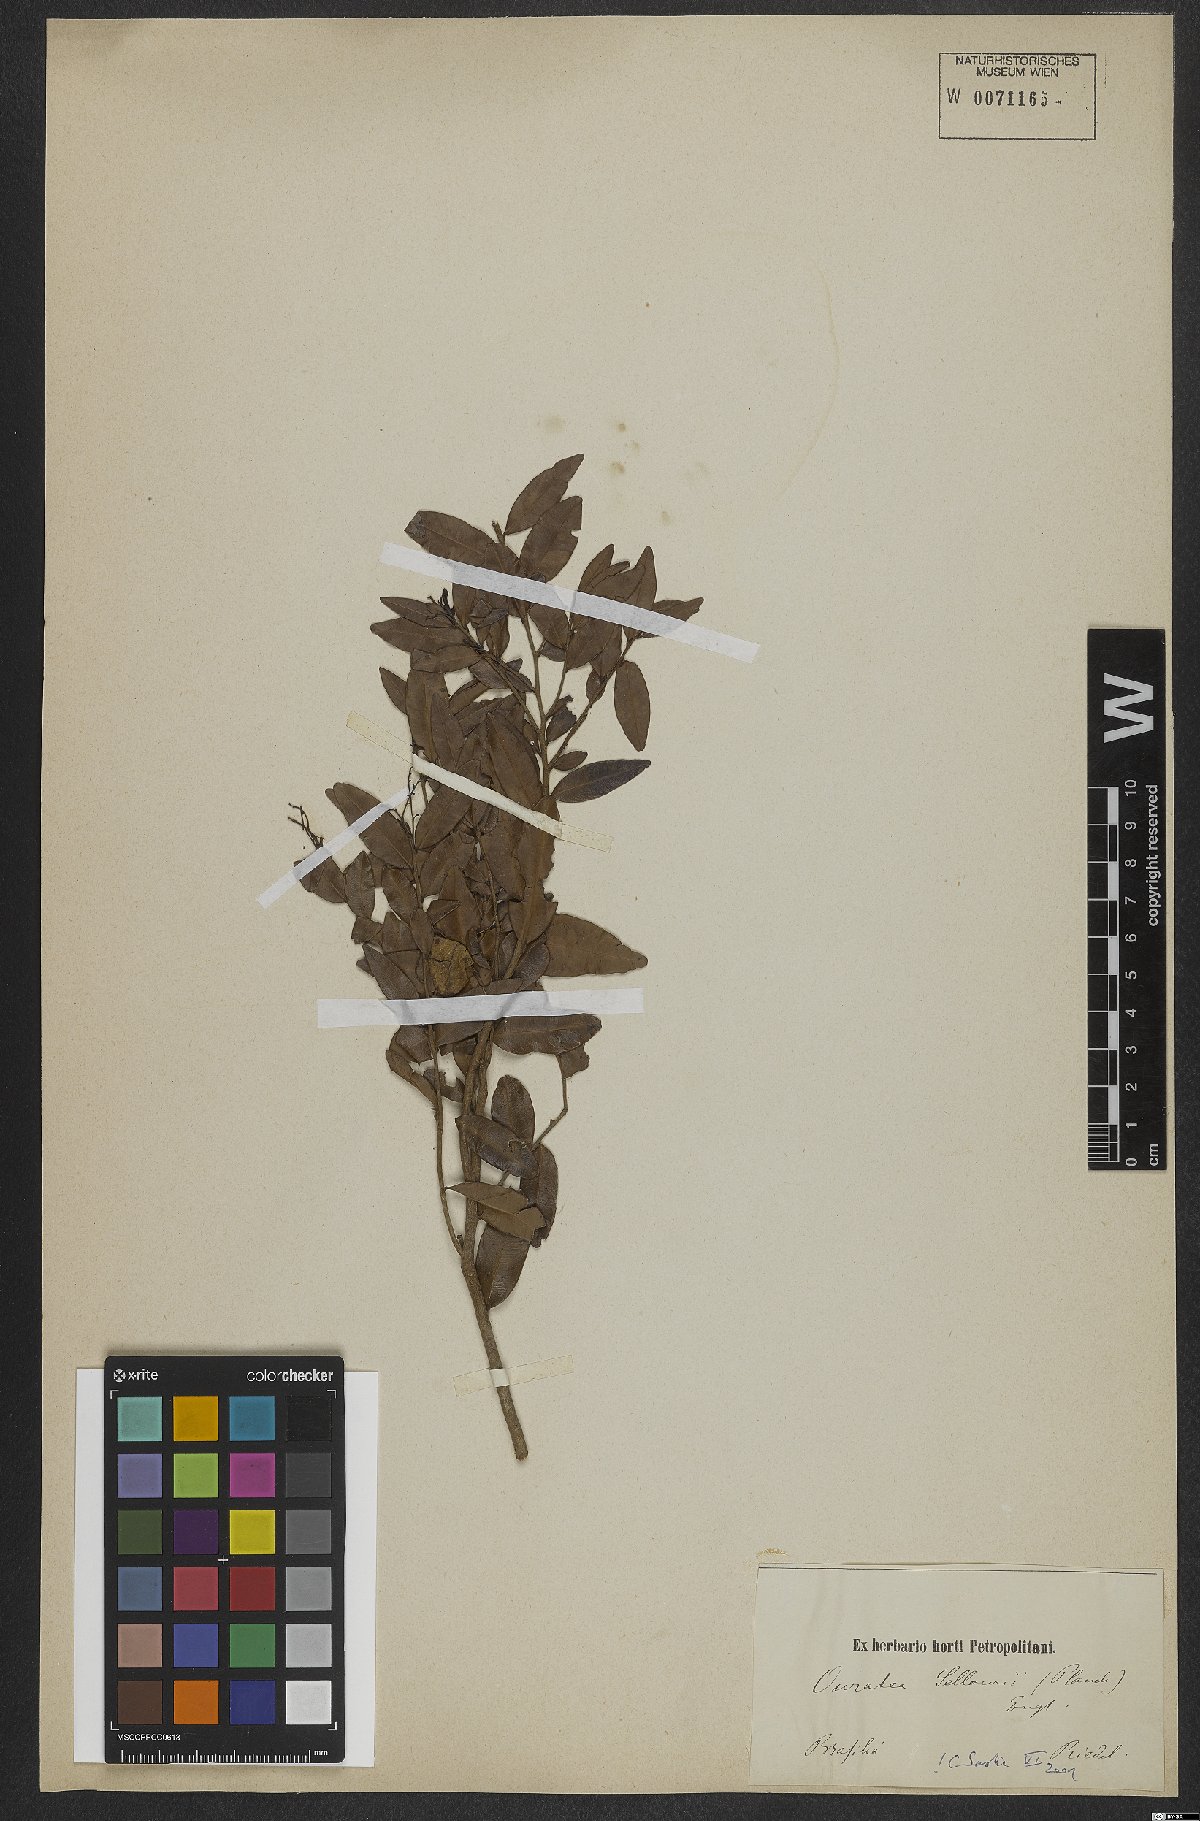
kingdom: Plantae
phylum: Tracheophyta
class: Magnoliopsida
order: Malpighiales
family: Ochnaceae
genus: Ouratea
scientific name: Ouratea sellowii
